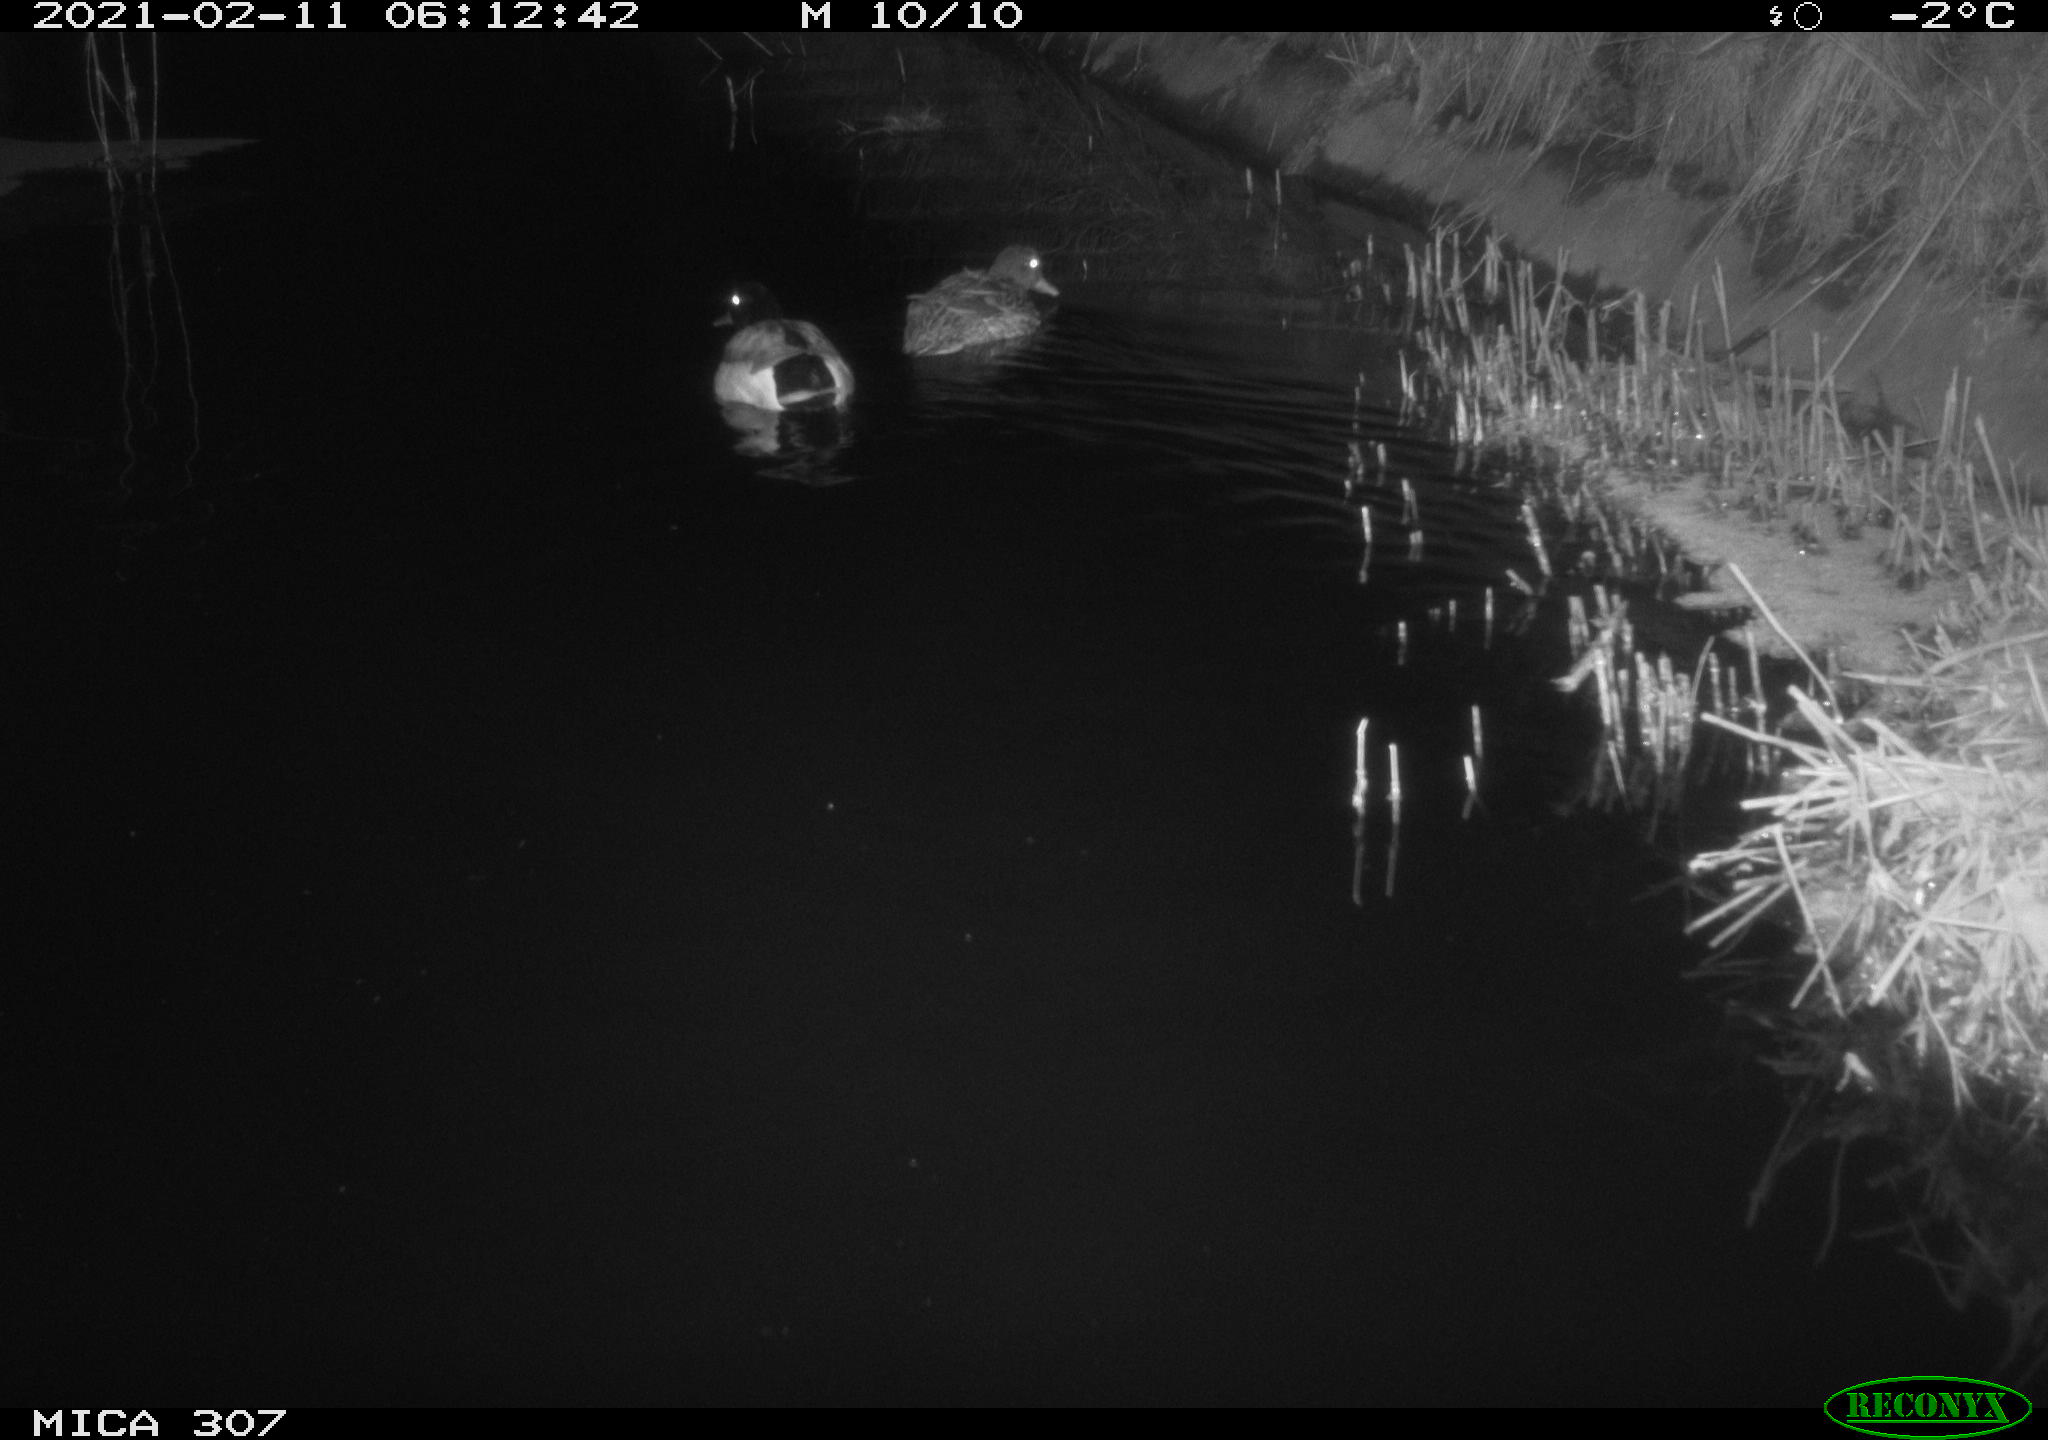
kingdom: Animalia
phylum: Chordata
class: Aves
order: Anseriformes
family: Anatidae
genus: Anas
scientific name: Anas platyrhynchos
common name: Mallard
